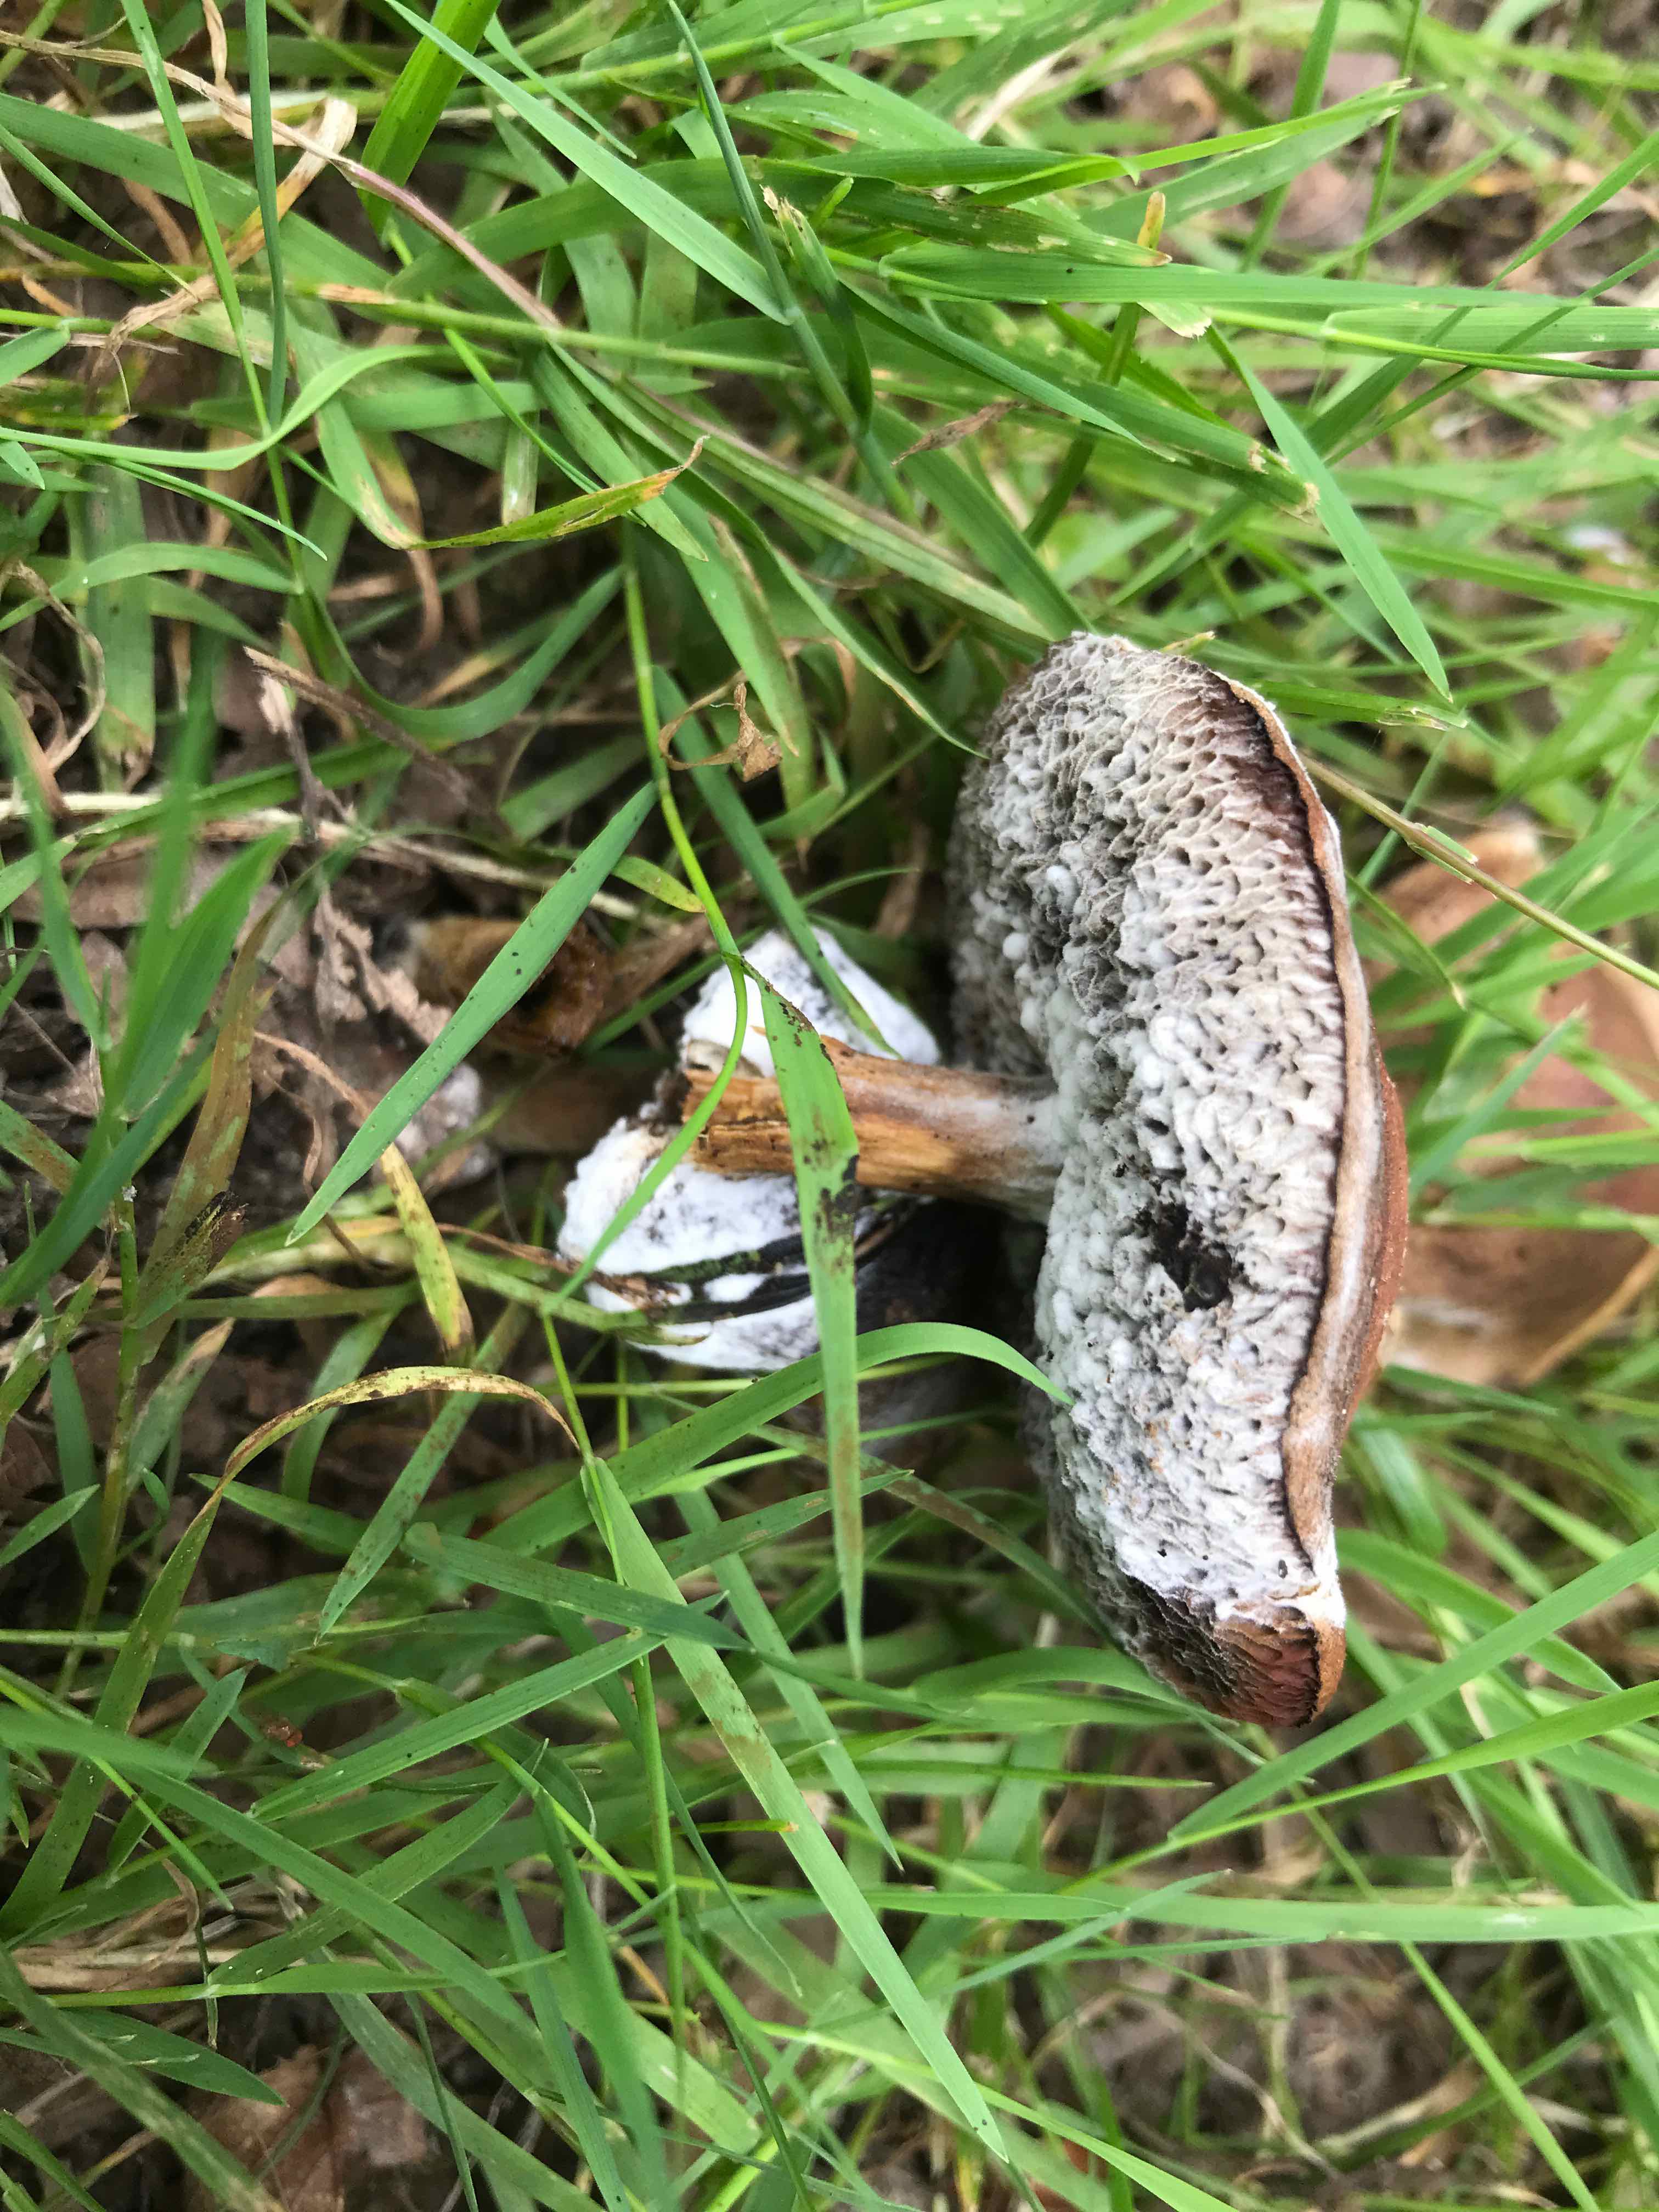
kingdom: Fungi
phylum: Ascomycota
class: Sordariomycetes
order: Hypocreales
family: Hypocreaceae
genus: Hypomyces
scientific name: Hypomyces microspermus
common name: dværgrørhat-snylteskorpe
